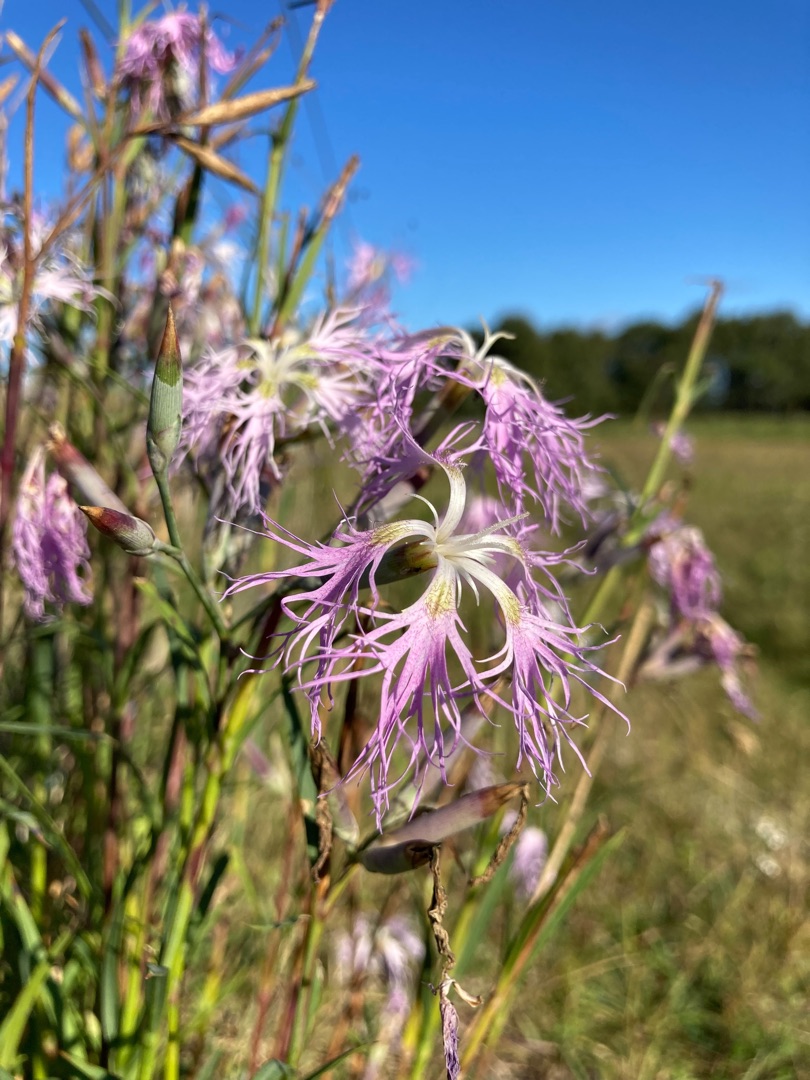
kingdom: Plantae
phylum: Tracheophyta
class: Magnoliopsida
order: Caryophyllales
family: Caryophyllaceae
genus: Dianthus
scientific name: Dianthus superbus
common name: Strand-nellike
